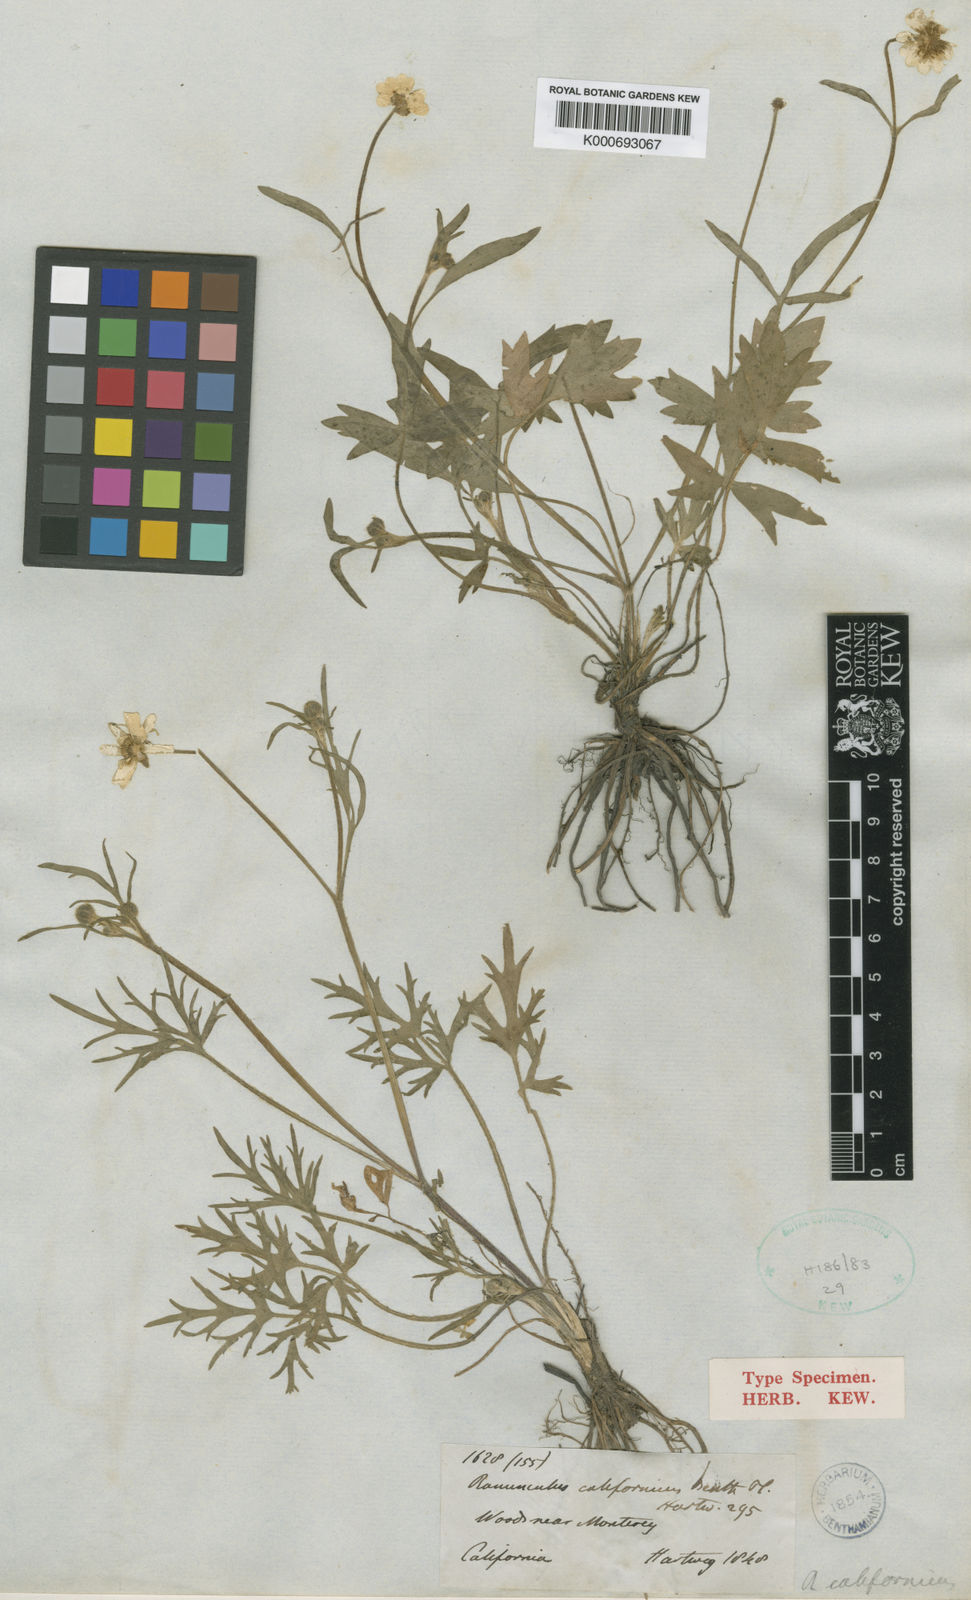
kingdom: Plantae
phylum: Tracheophyta
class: Magnoliopsida
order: Ranunculales
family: Ranunculaceae
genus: Ranunculus
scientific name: Ranunculus californicus
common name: California buttercup
